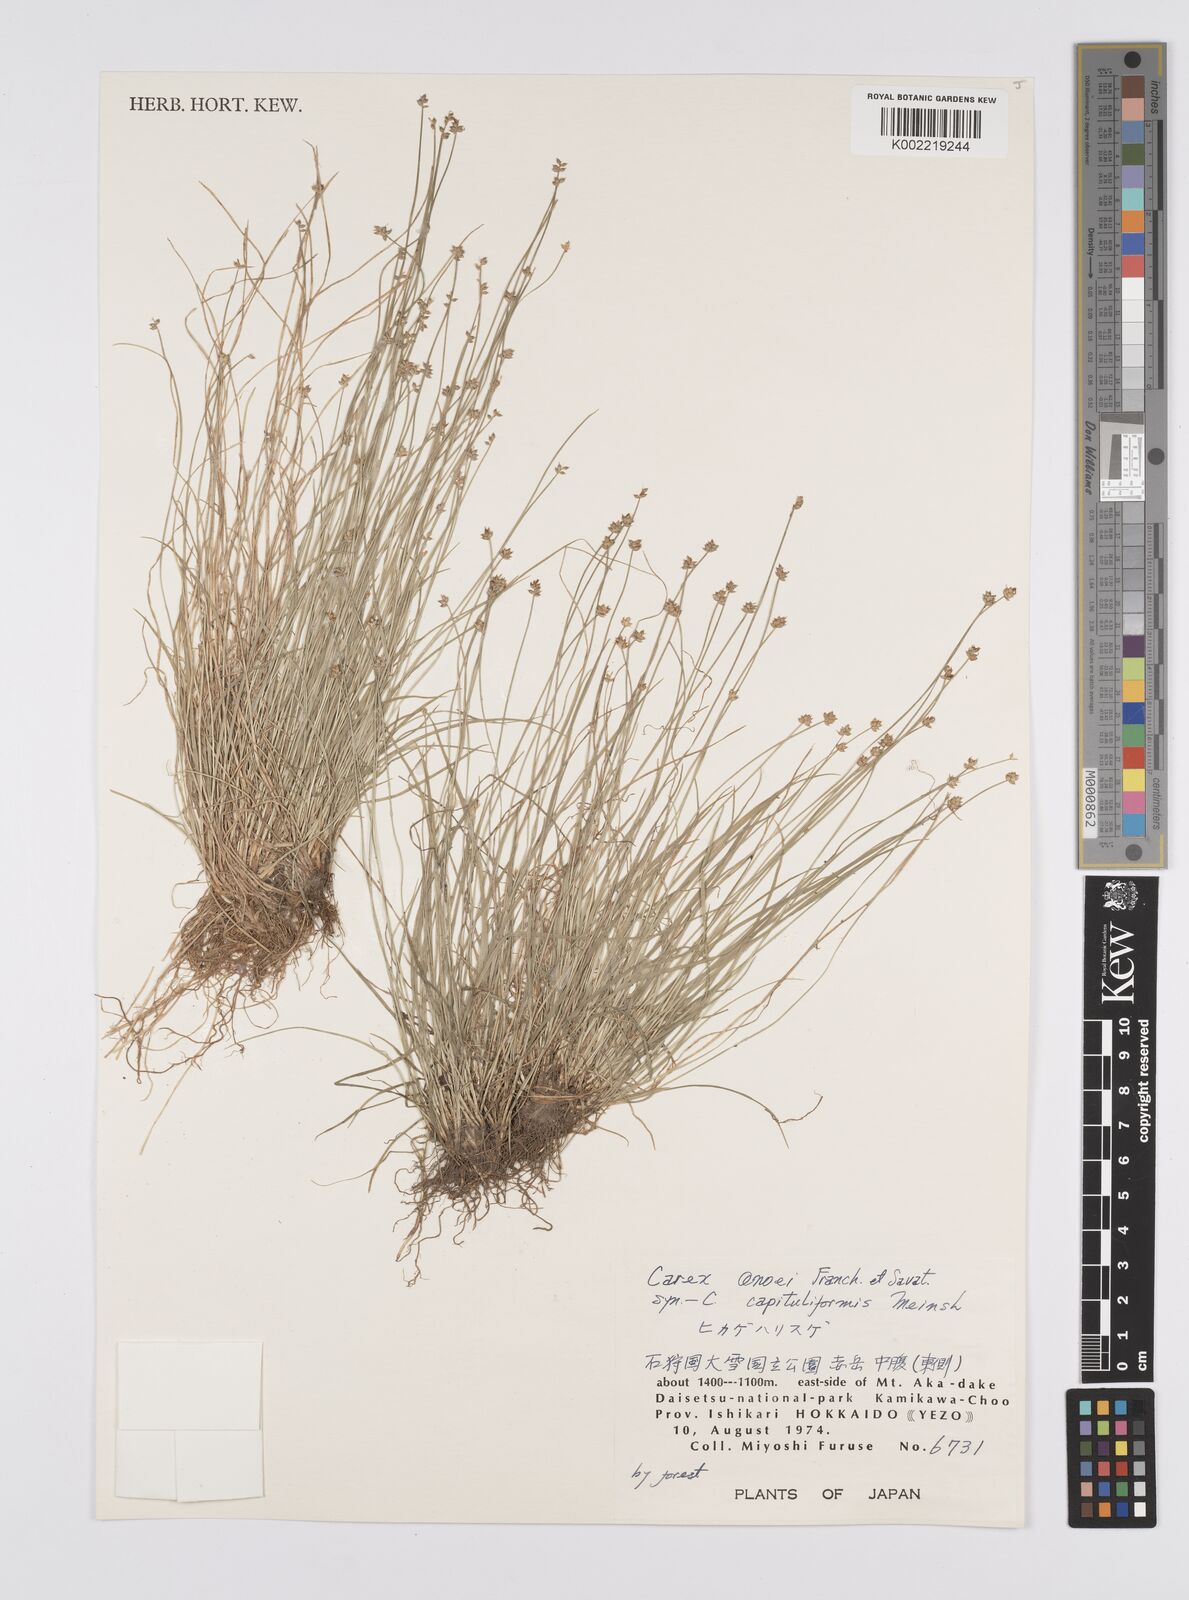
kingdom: Plantae
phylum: Tracheophyta
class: Liliopsida
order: Poales
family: Cyperaceae
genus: Carex
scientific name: Carex onoei
